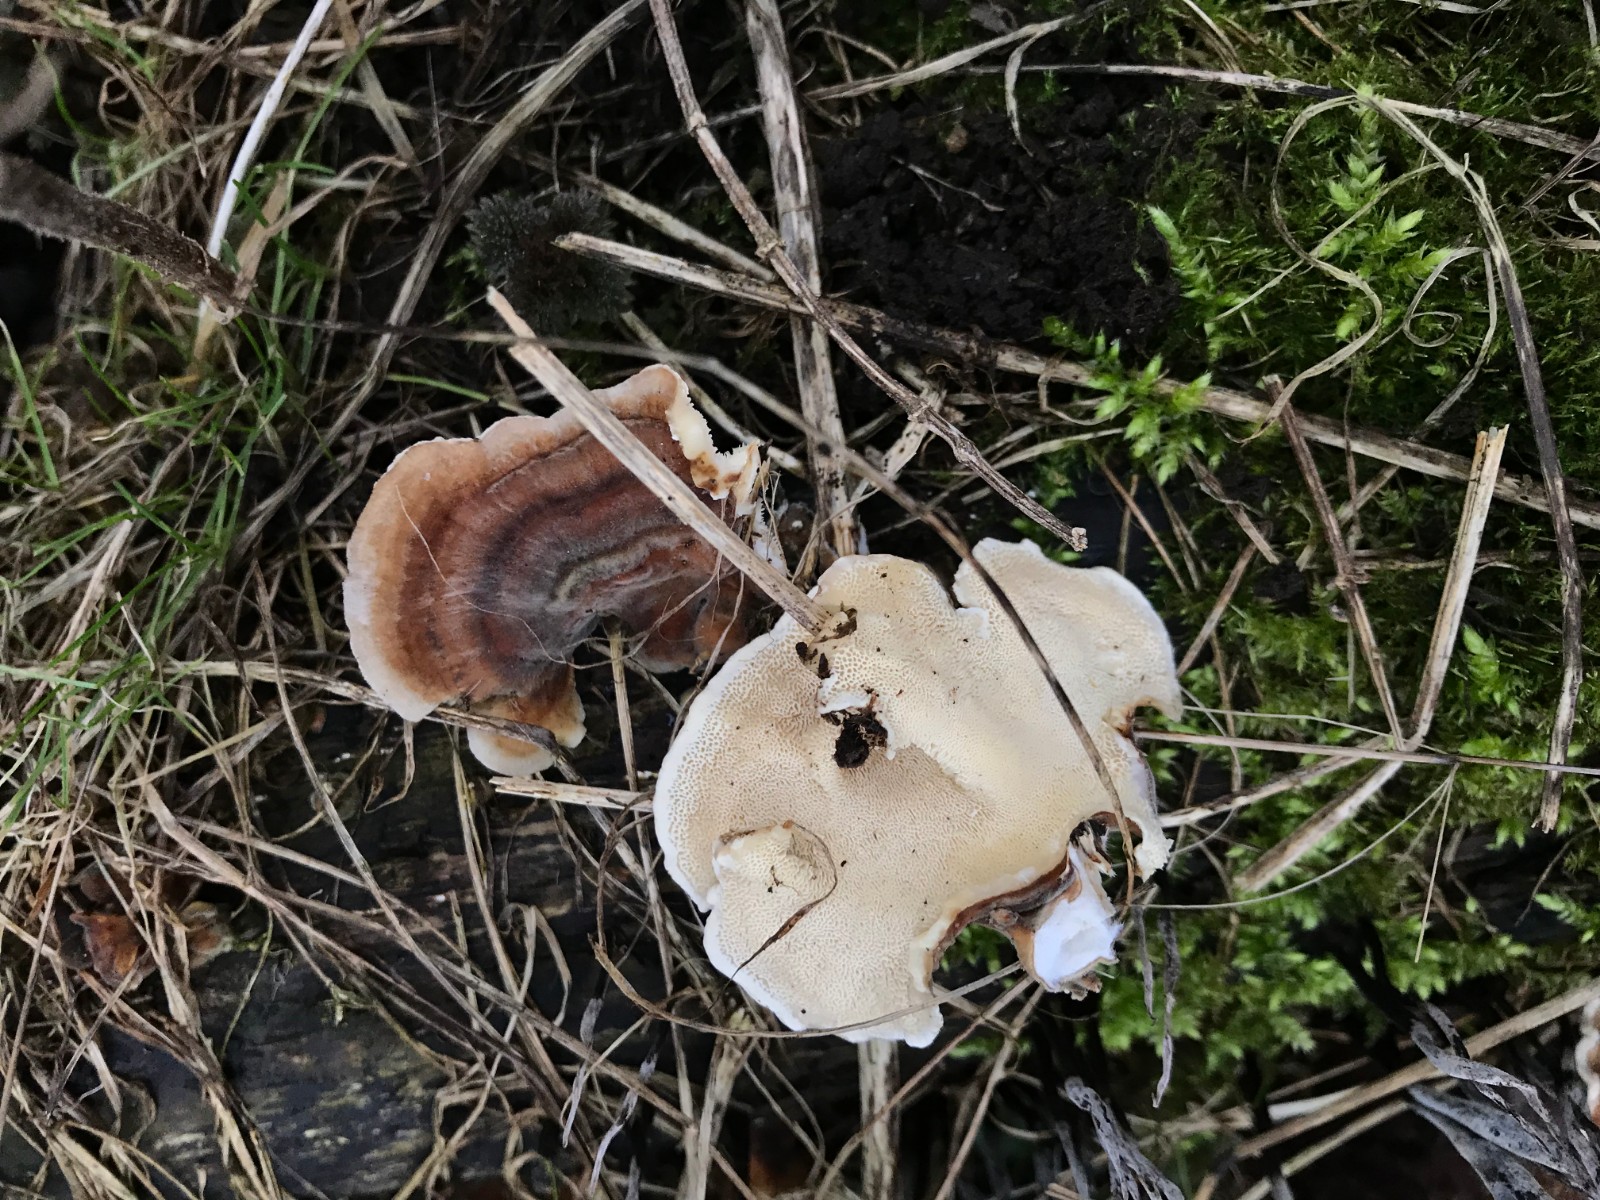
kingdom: Fungi
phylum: Basidiomycota
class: Agaricomycetes
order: Polyporales
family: Polyporaceae
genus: Trametes
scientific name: Trametes versicolor
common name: broget læderporesvamp
